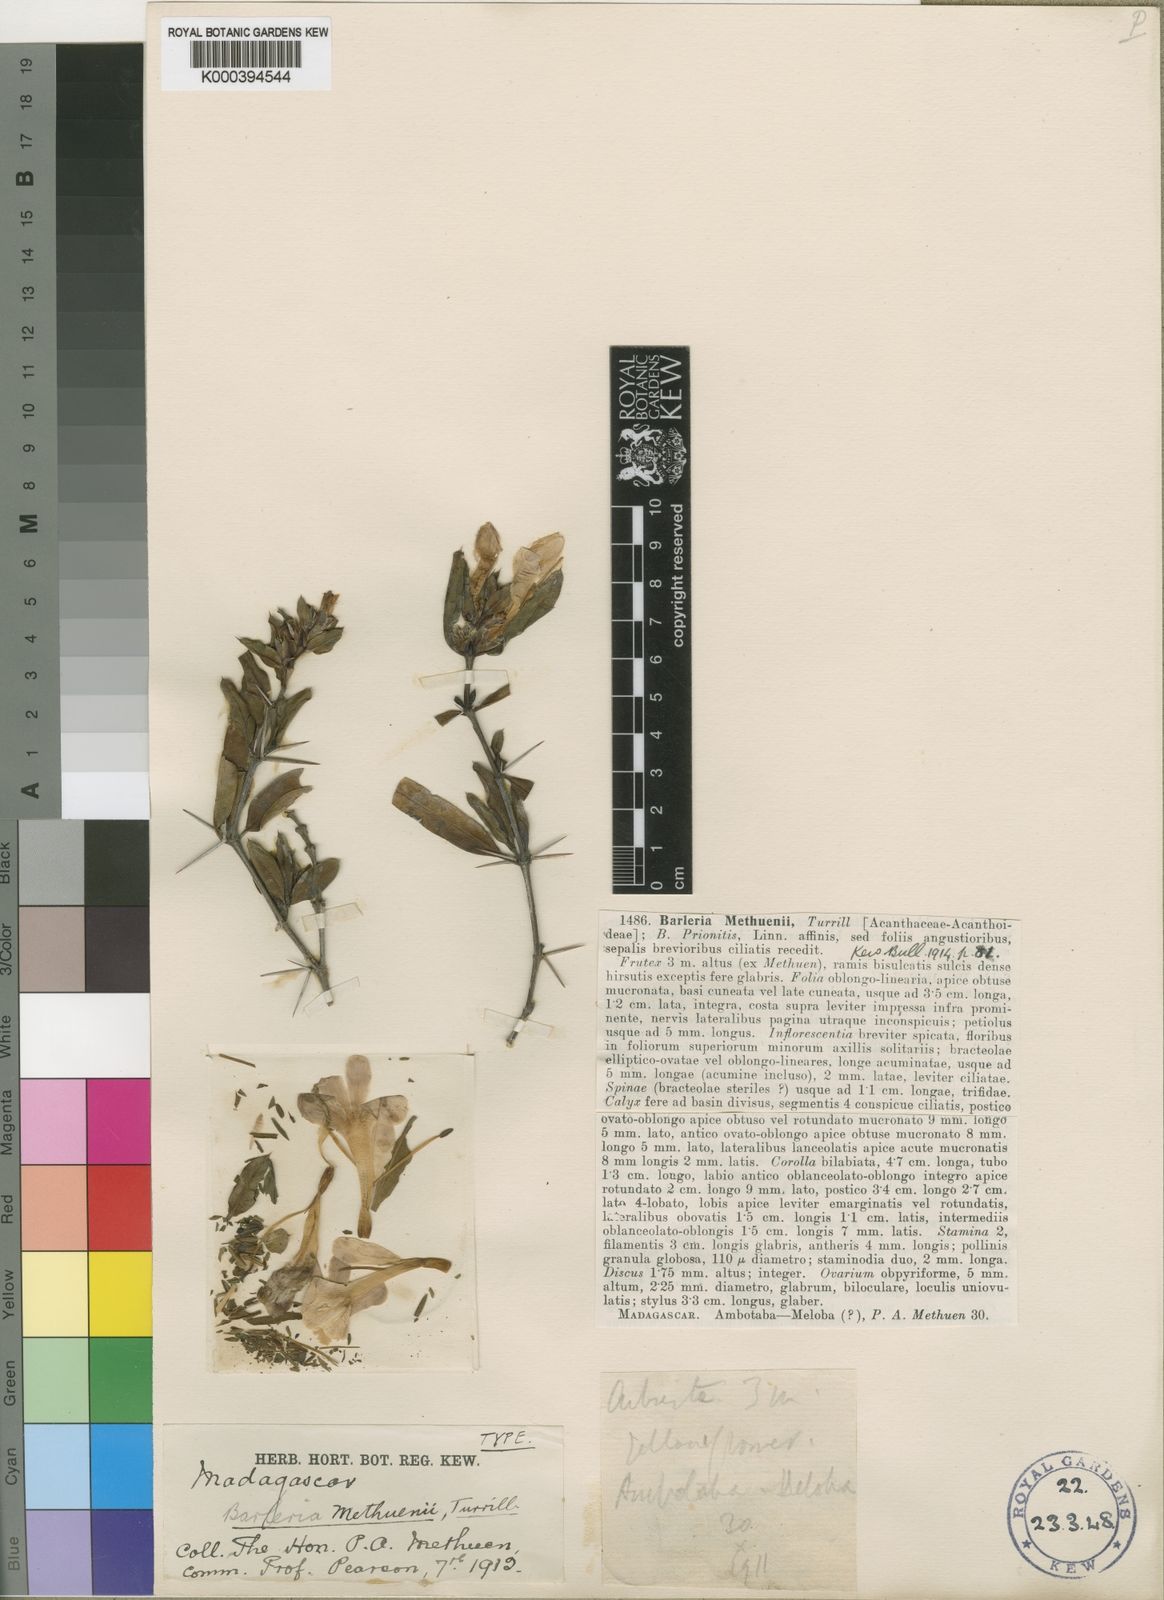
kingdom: Plantae
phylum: Tracheophyta
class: Magnoliopsida
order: Lamiales
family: Acanthaceae
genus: Barleria
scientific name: Barleria prionitis
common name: Barleria
